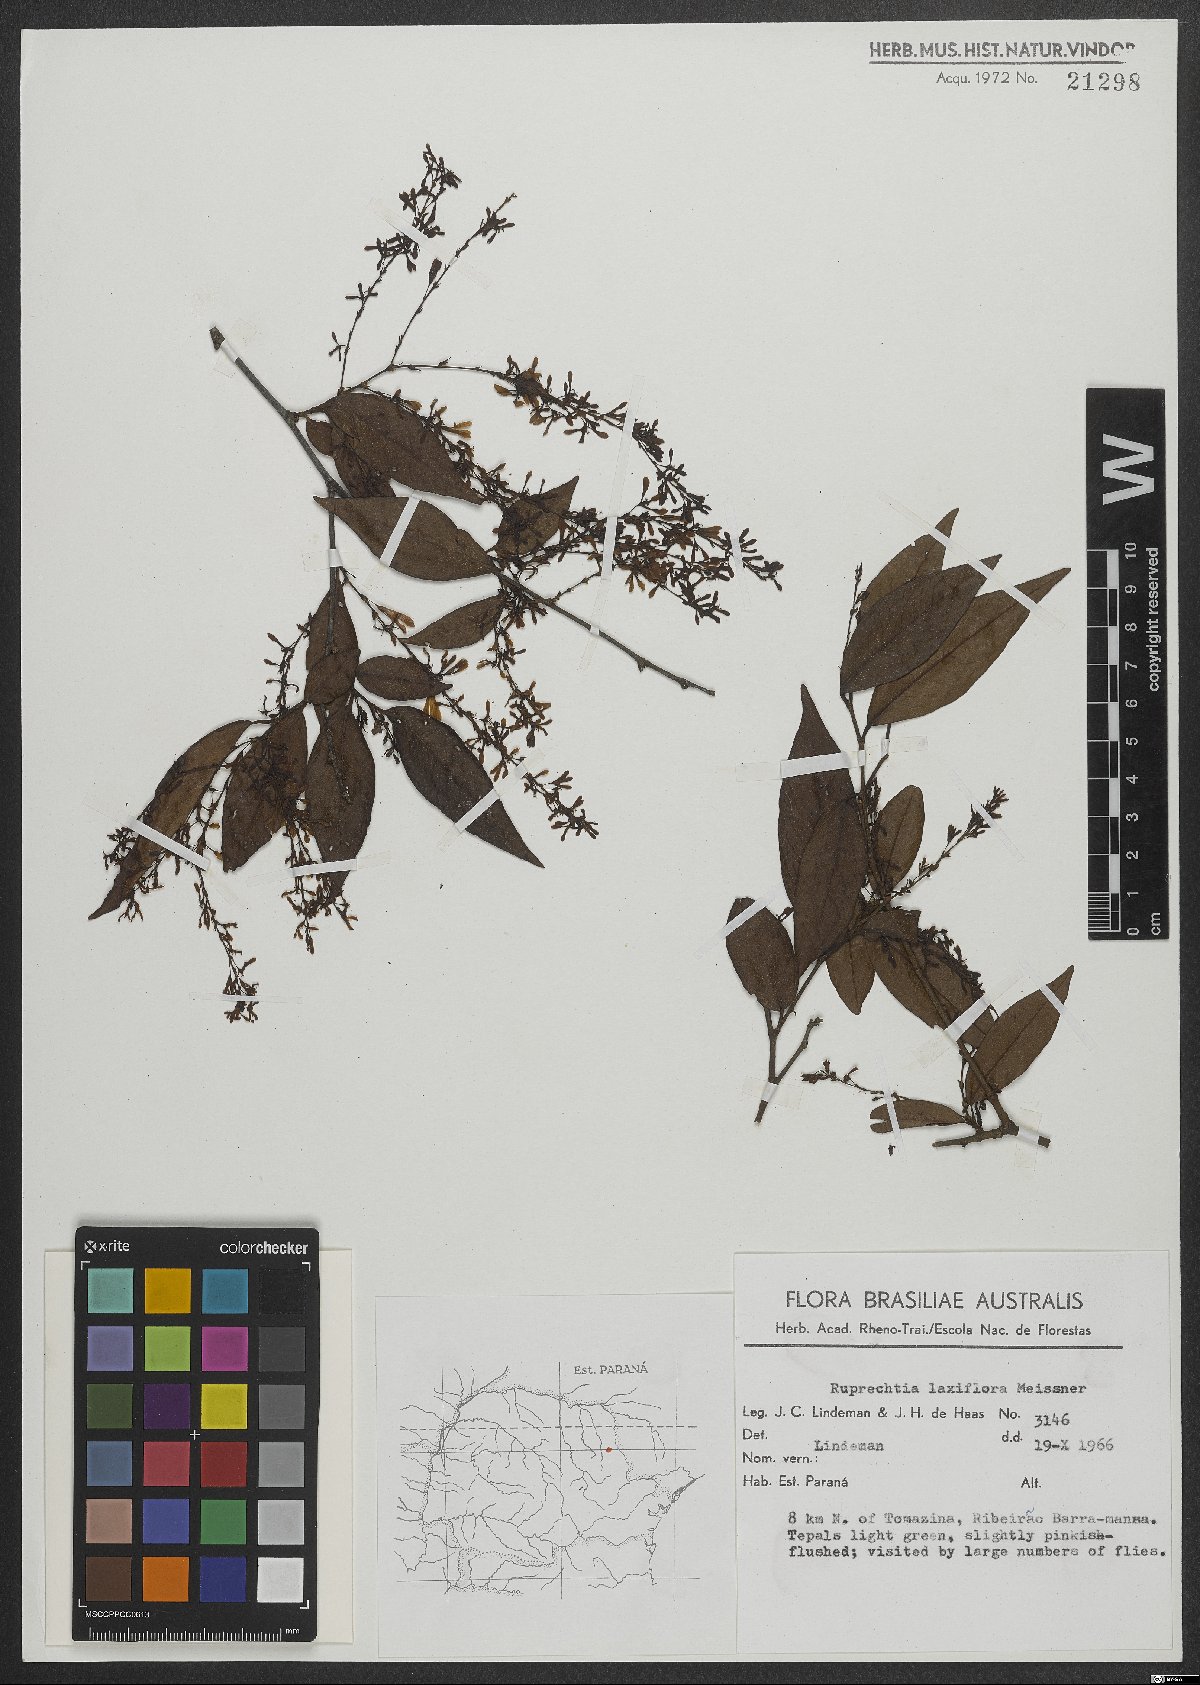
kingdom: Plantae
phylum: Tracheophyta
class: Magnoliopsida
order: Caryophyllales
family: Polygonaceae
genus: Ruprechtia
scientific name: Ruprechtia laxiflora
